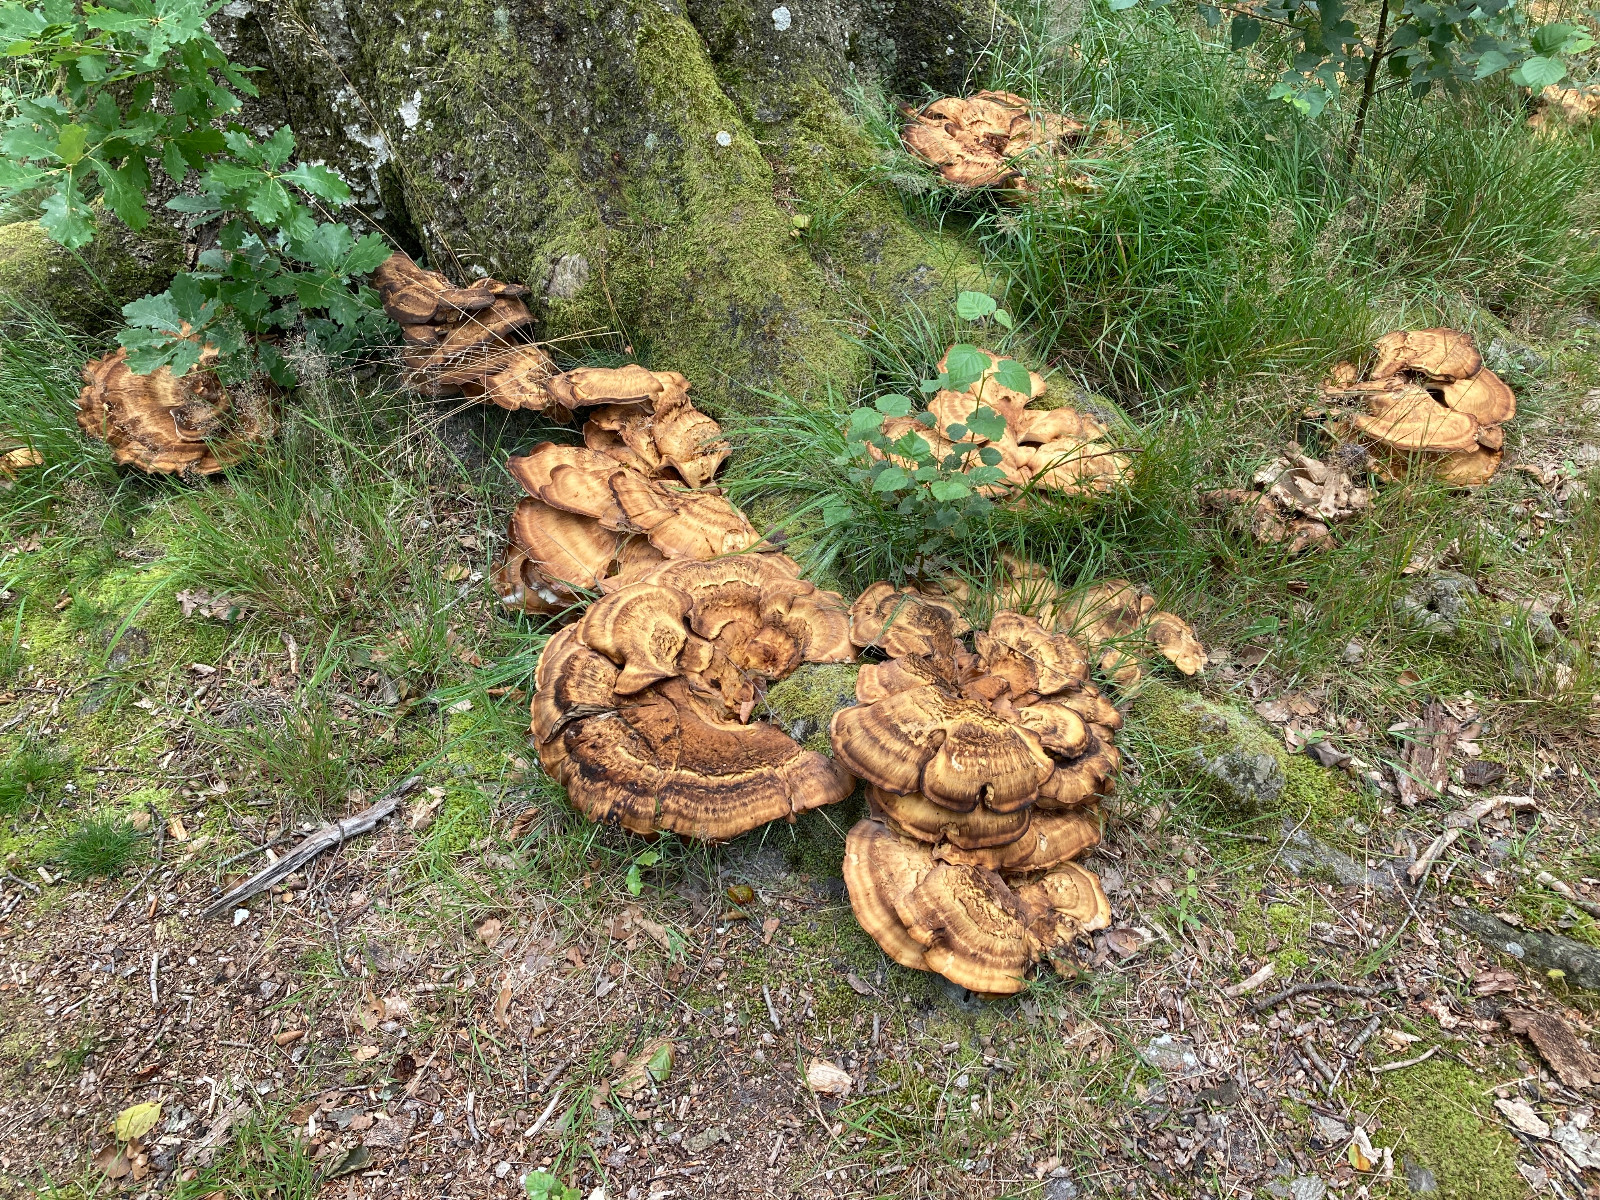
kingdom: Fungi
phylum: Basidiomycota
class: Agaricomycetes
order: Polyporales
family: Meripilaceae
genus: Meripilus
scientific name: Meripilus giganteus
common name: kæmpeporesvamp
